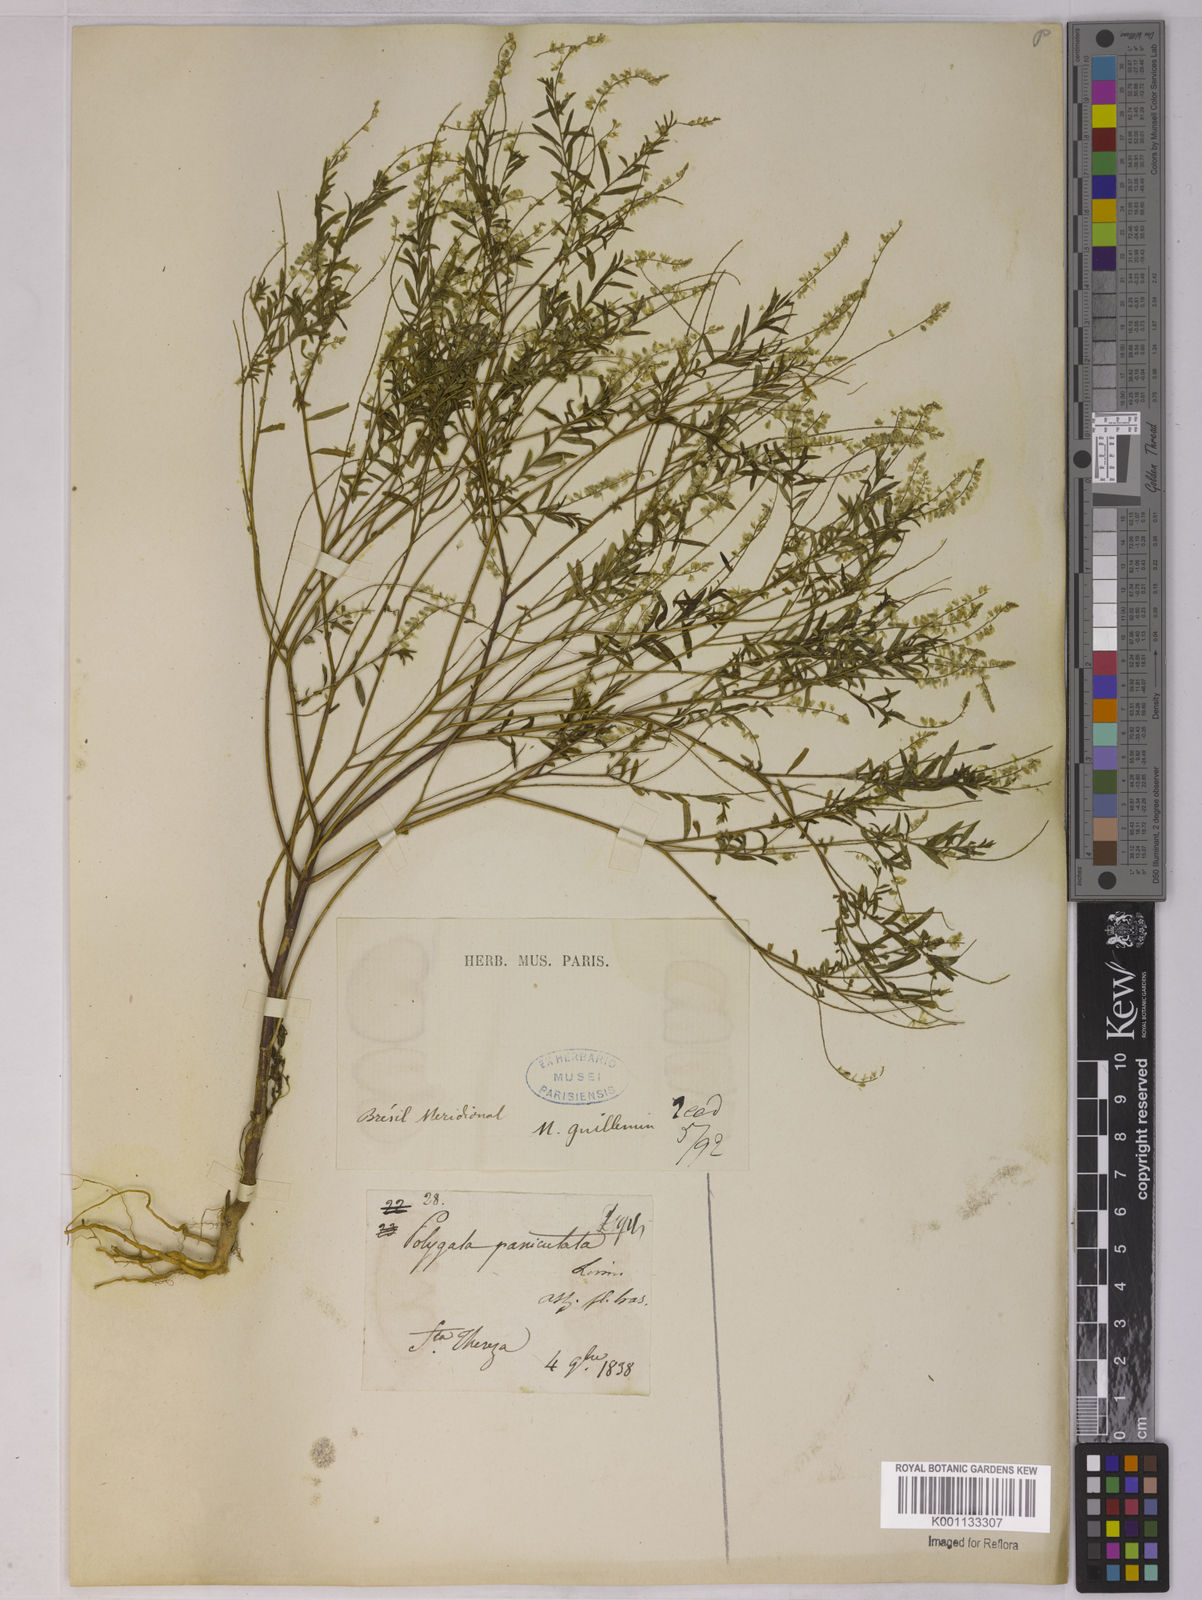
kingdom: Plantae
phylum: Tracheophyta
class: Magnoliopsida
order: Fabales
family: Polygalaceae
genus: Polygala
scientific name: Polygala paniculata
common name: Orosne
